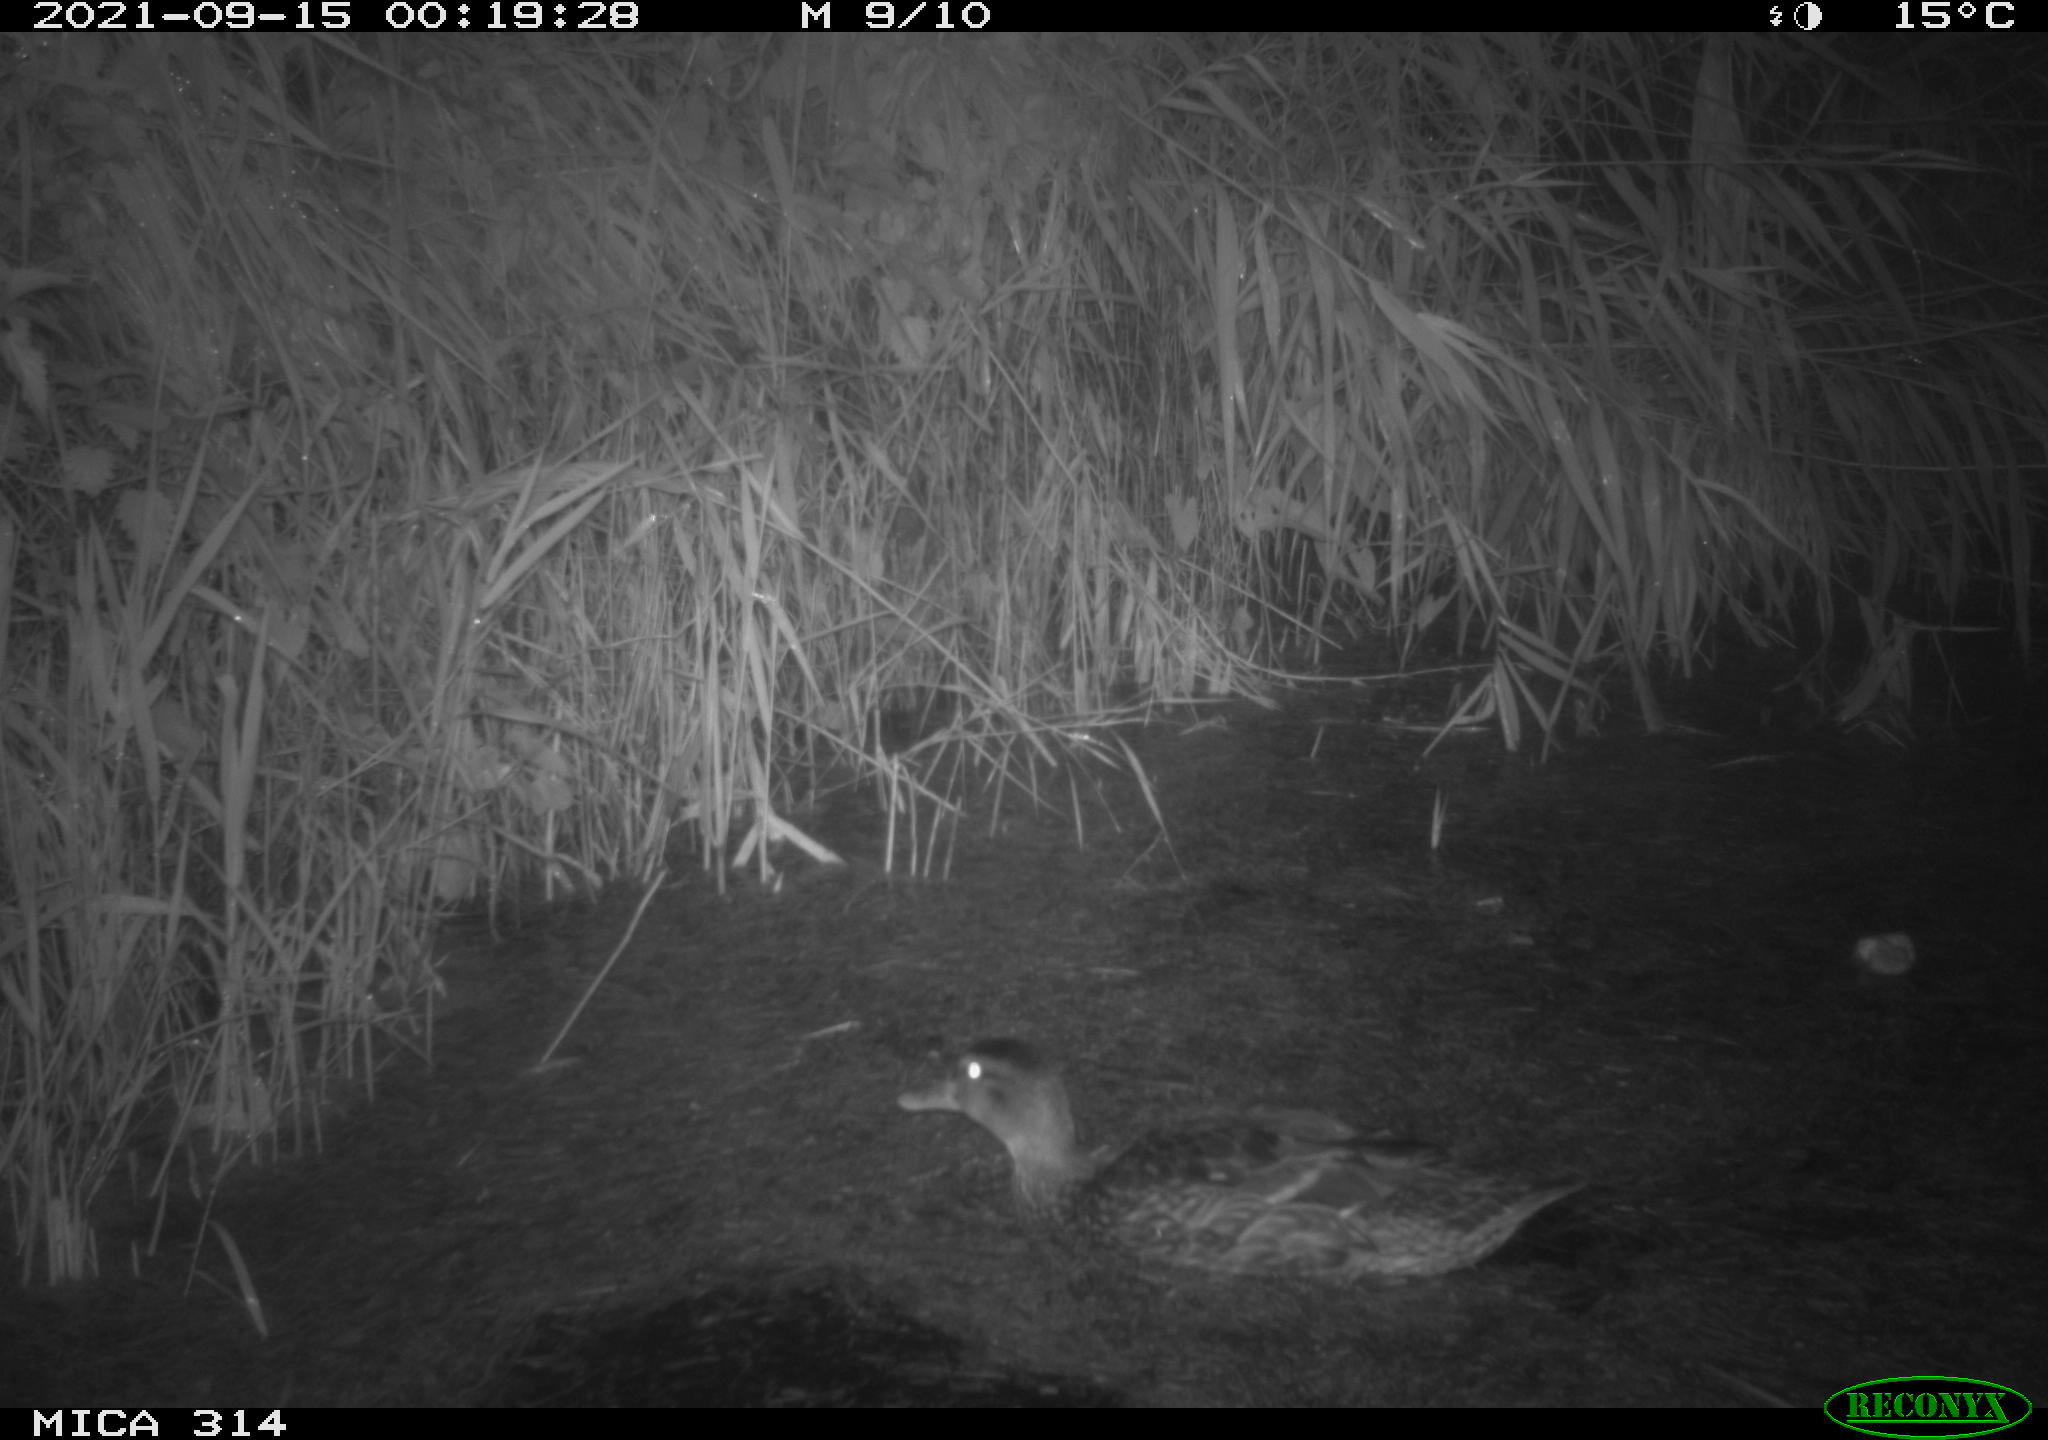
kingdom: Animalia
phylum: Chordata
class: Aves
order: Anseriformes
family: Anatidae
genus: Anas
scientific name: Anas platyrhynchos
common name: Mallard
